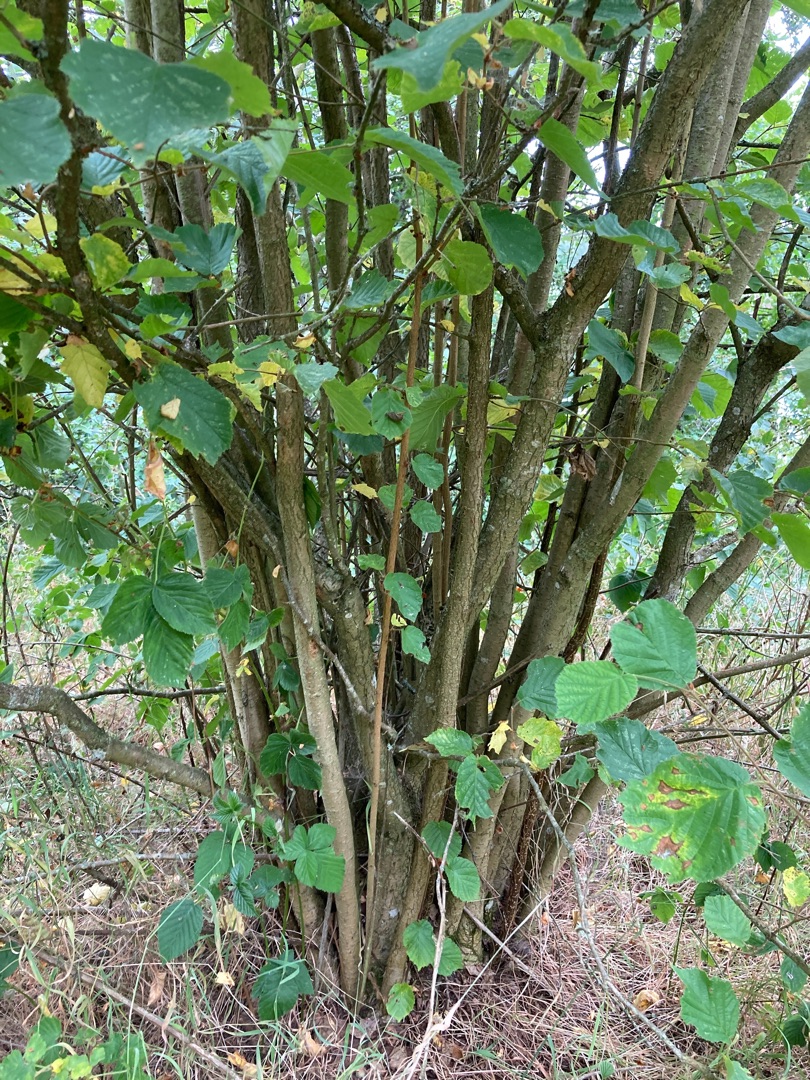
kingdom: Plantae
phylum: Tracheophyta
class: Magnoliopsida
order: Fagales
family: Betulaceae
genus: Corylus
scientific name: Corylus avellana
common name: Hassel
